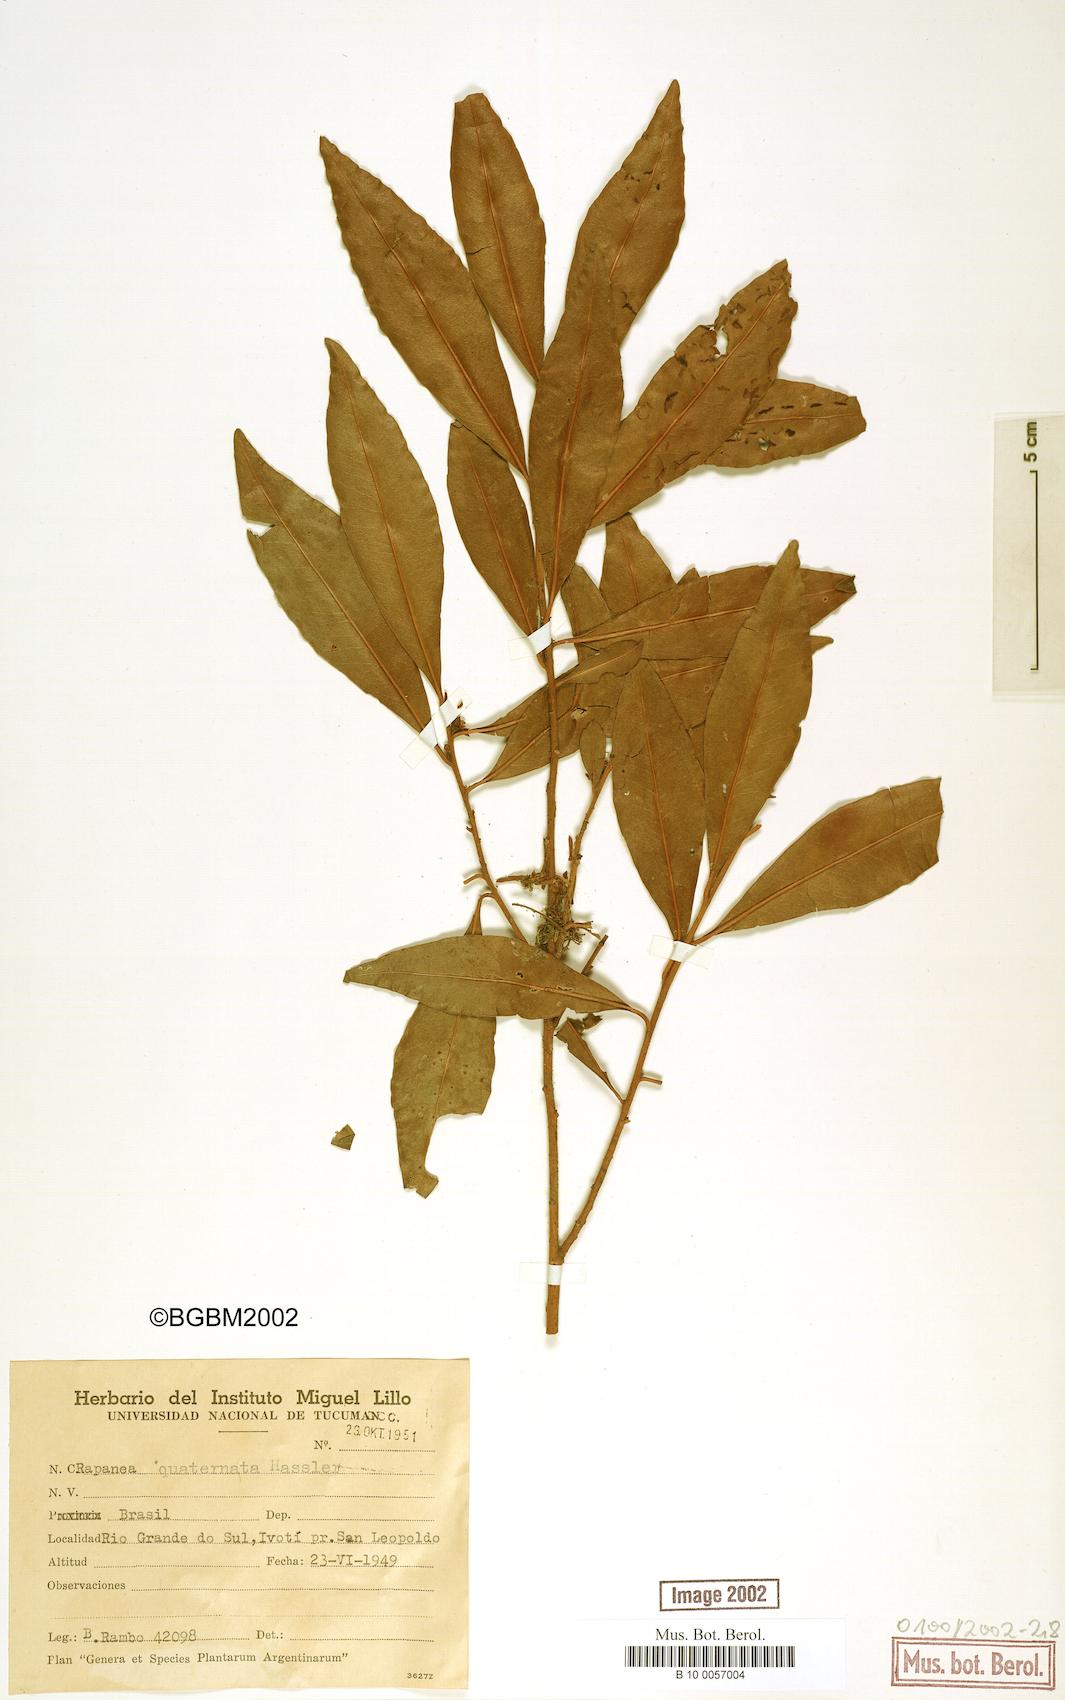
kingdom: Plantae
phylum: Tracheophyta
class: Magnoliopsida
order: Ericales
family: Primulaceae
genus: Myrsine
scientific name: Myrsine loefgrenii
